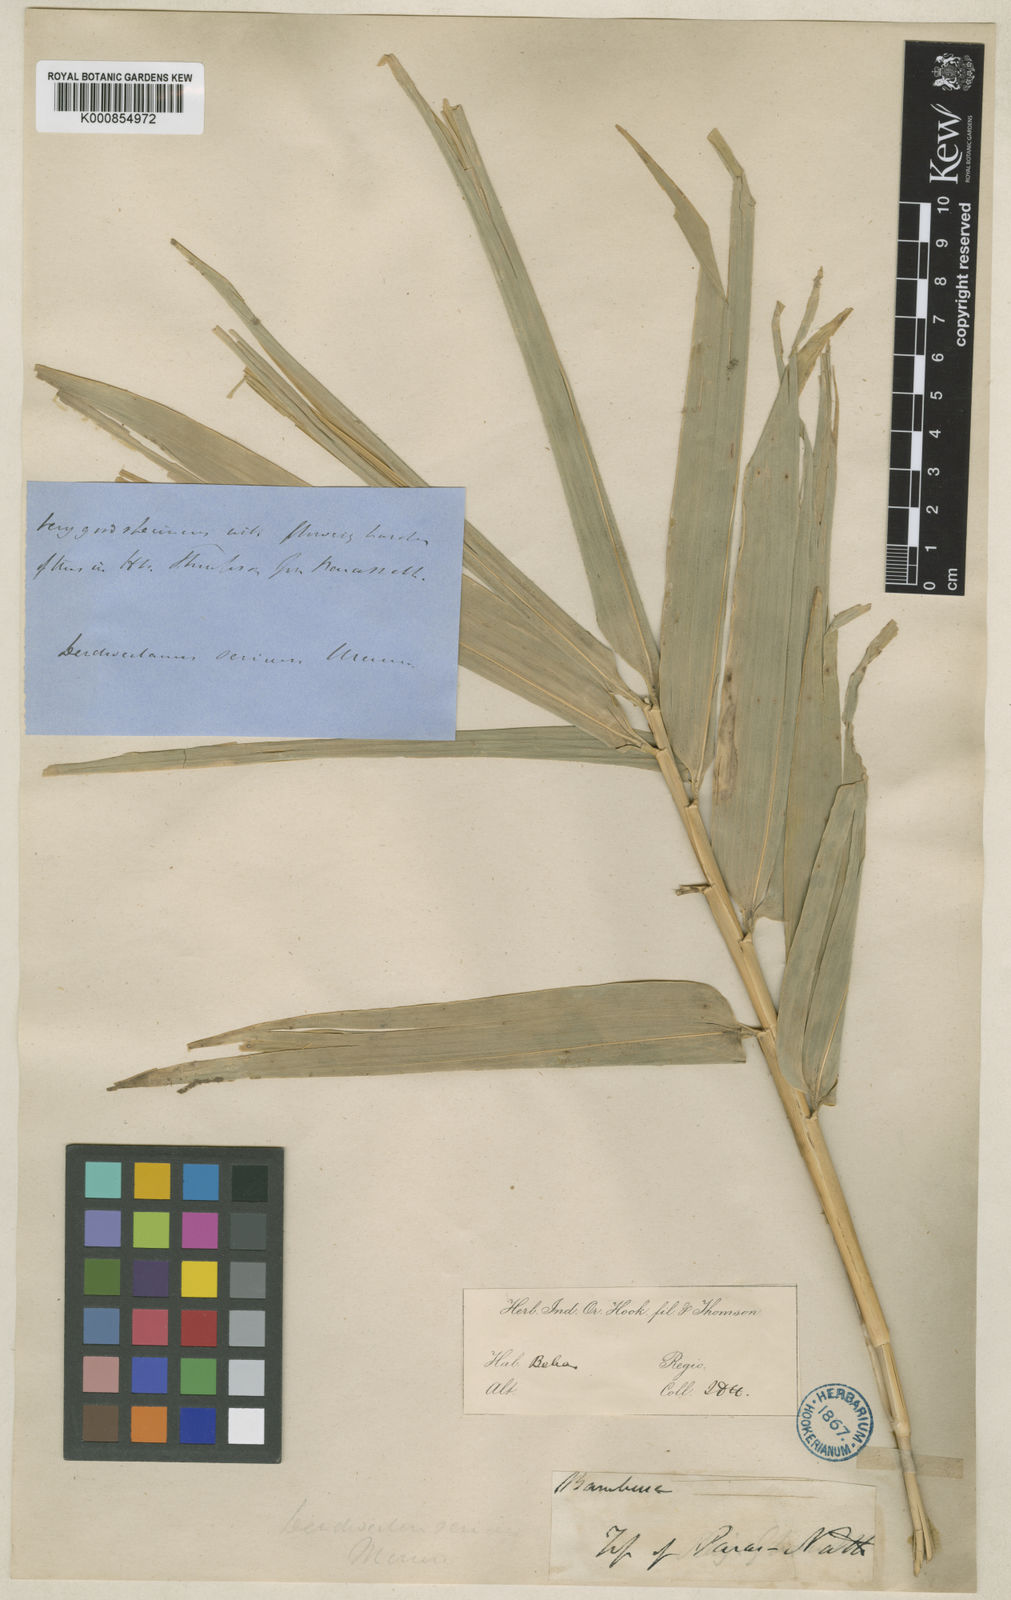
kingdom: Plantae
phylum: Tracheophyta
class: Liliopsida
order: Poales
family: Poaceae
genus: Dendrocalamus
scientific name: Dendrocalamus sericeus
